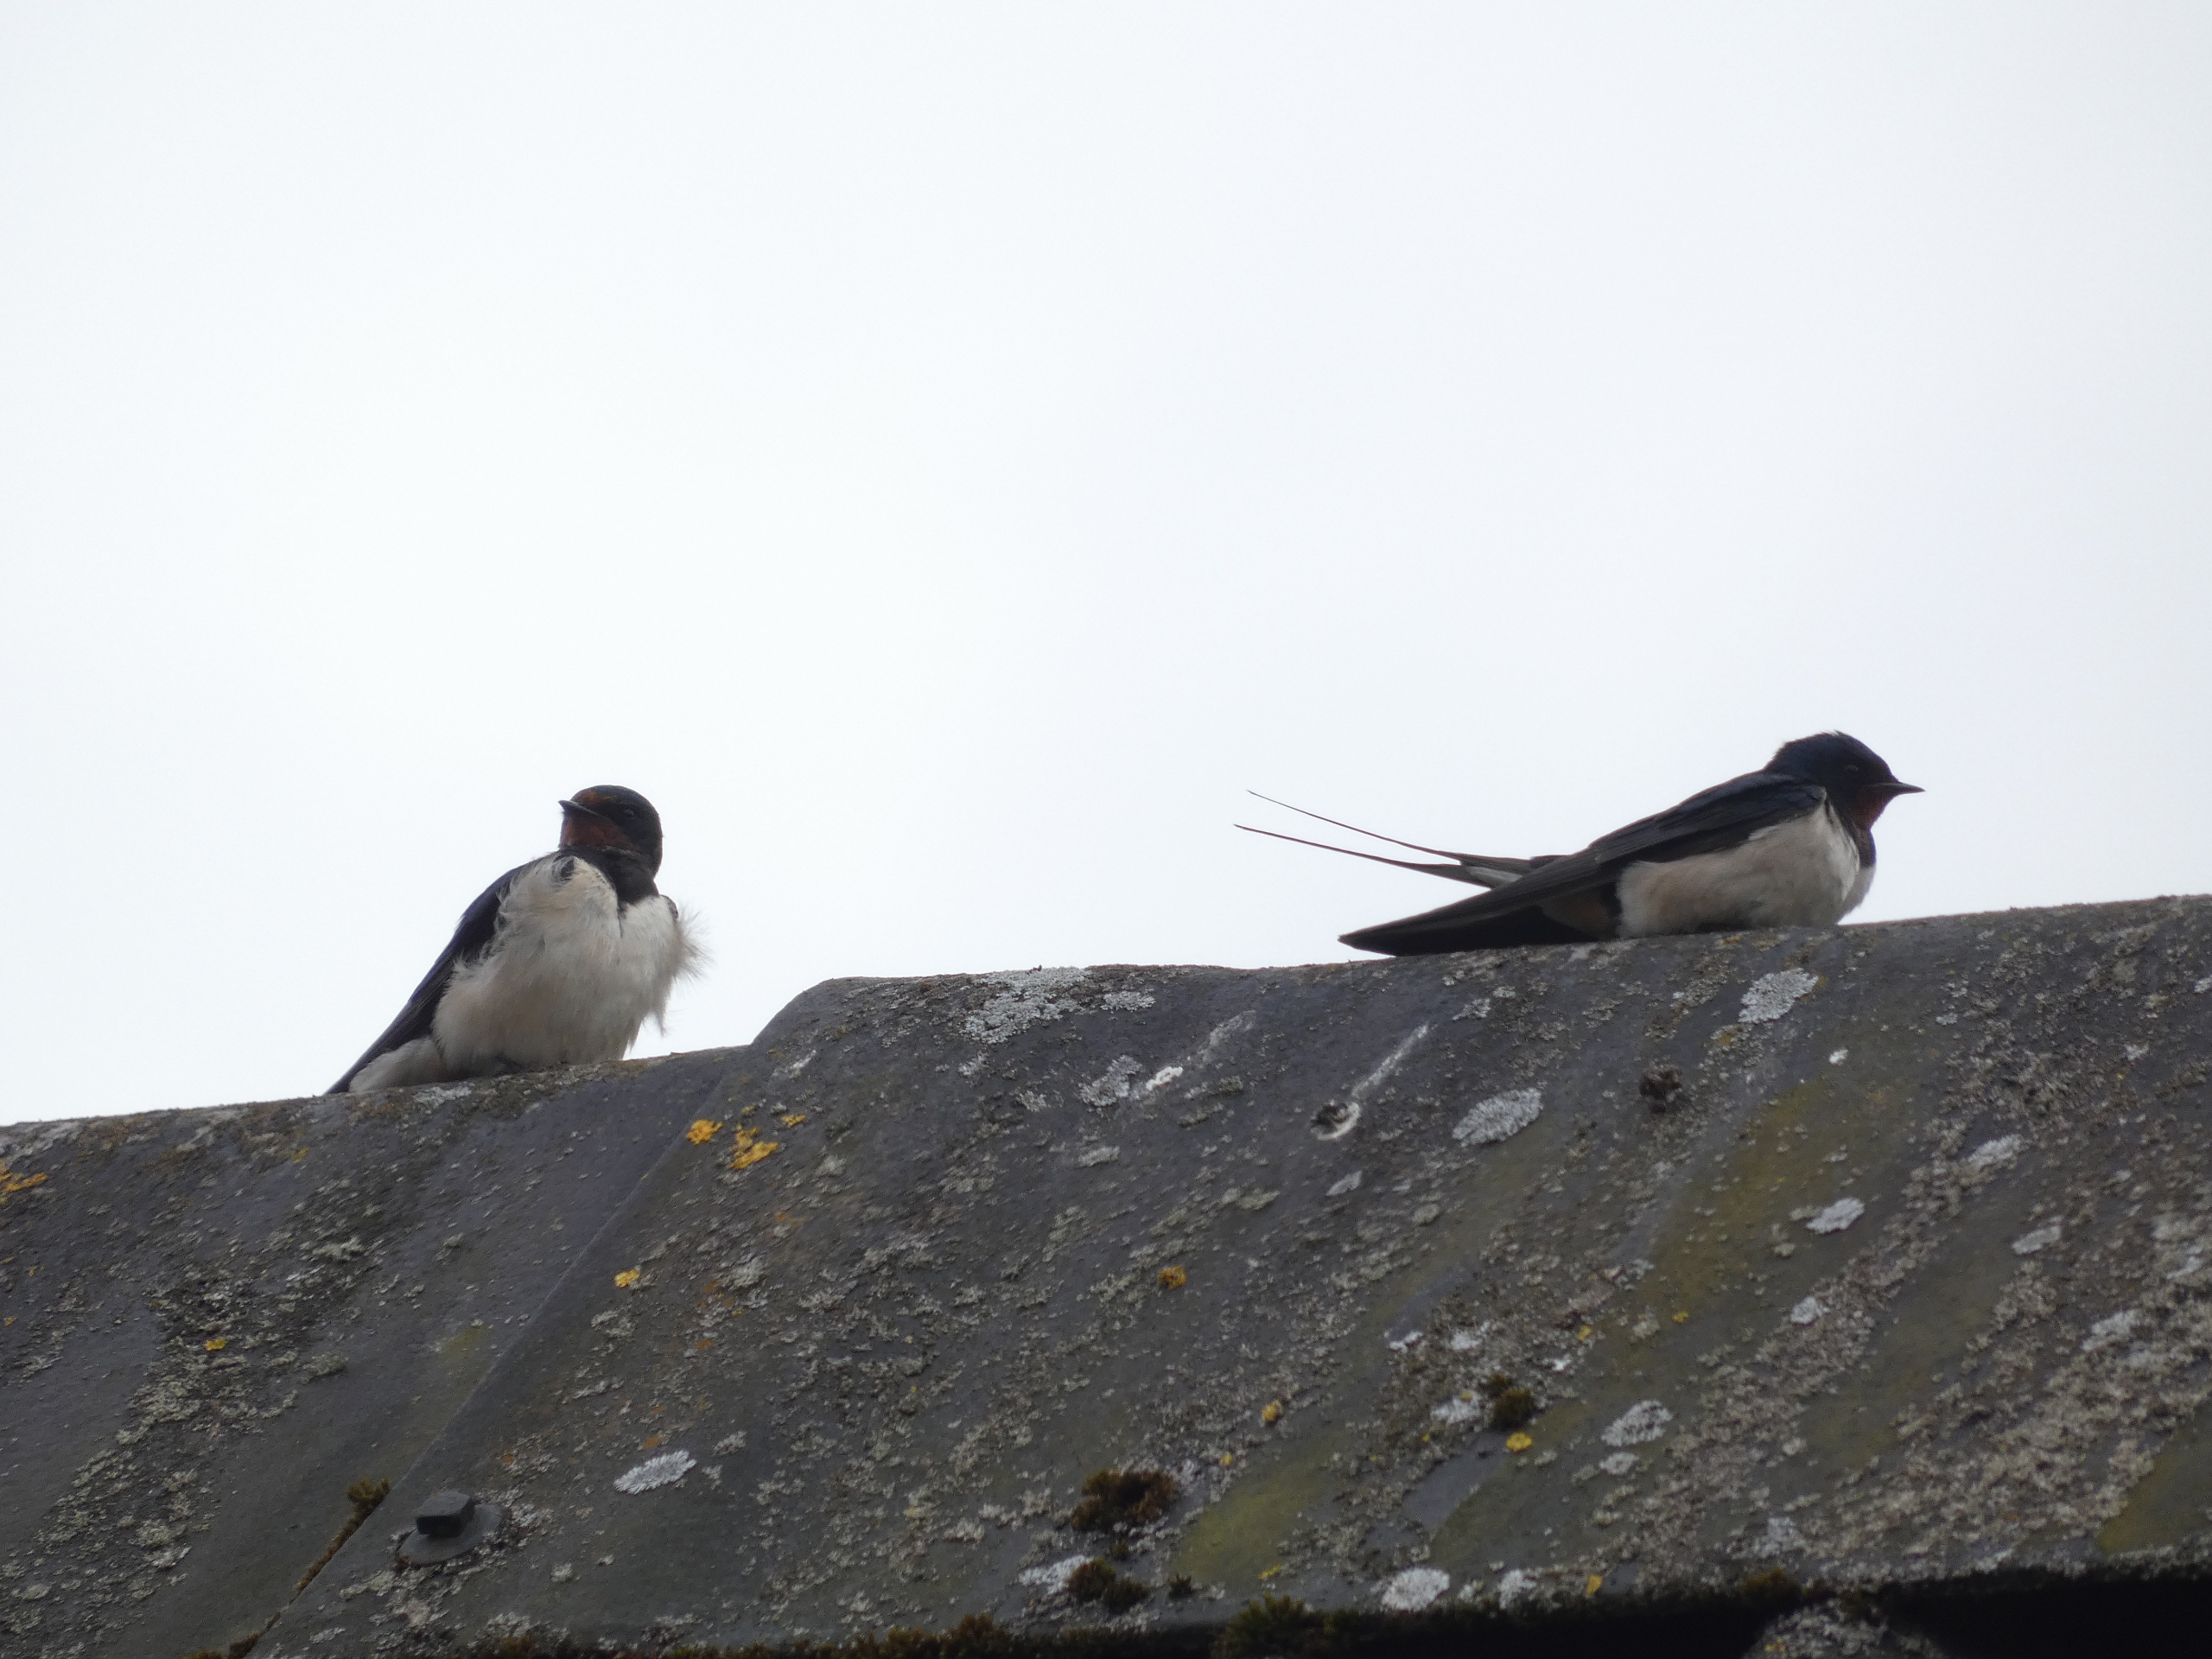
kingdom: Animalia
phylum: Chordata
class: Aves
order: Passeriformes
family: Hirundinidae
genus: Hirundo
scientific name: Hirundo rustica
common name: Landsvale
